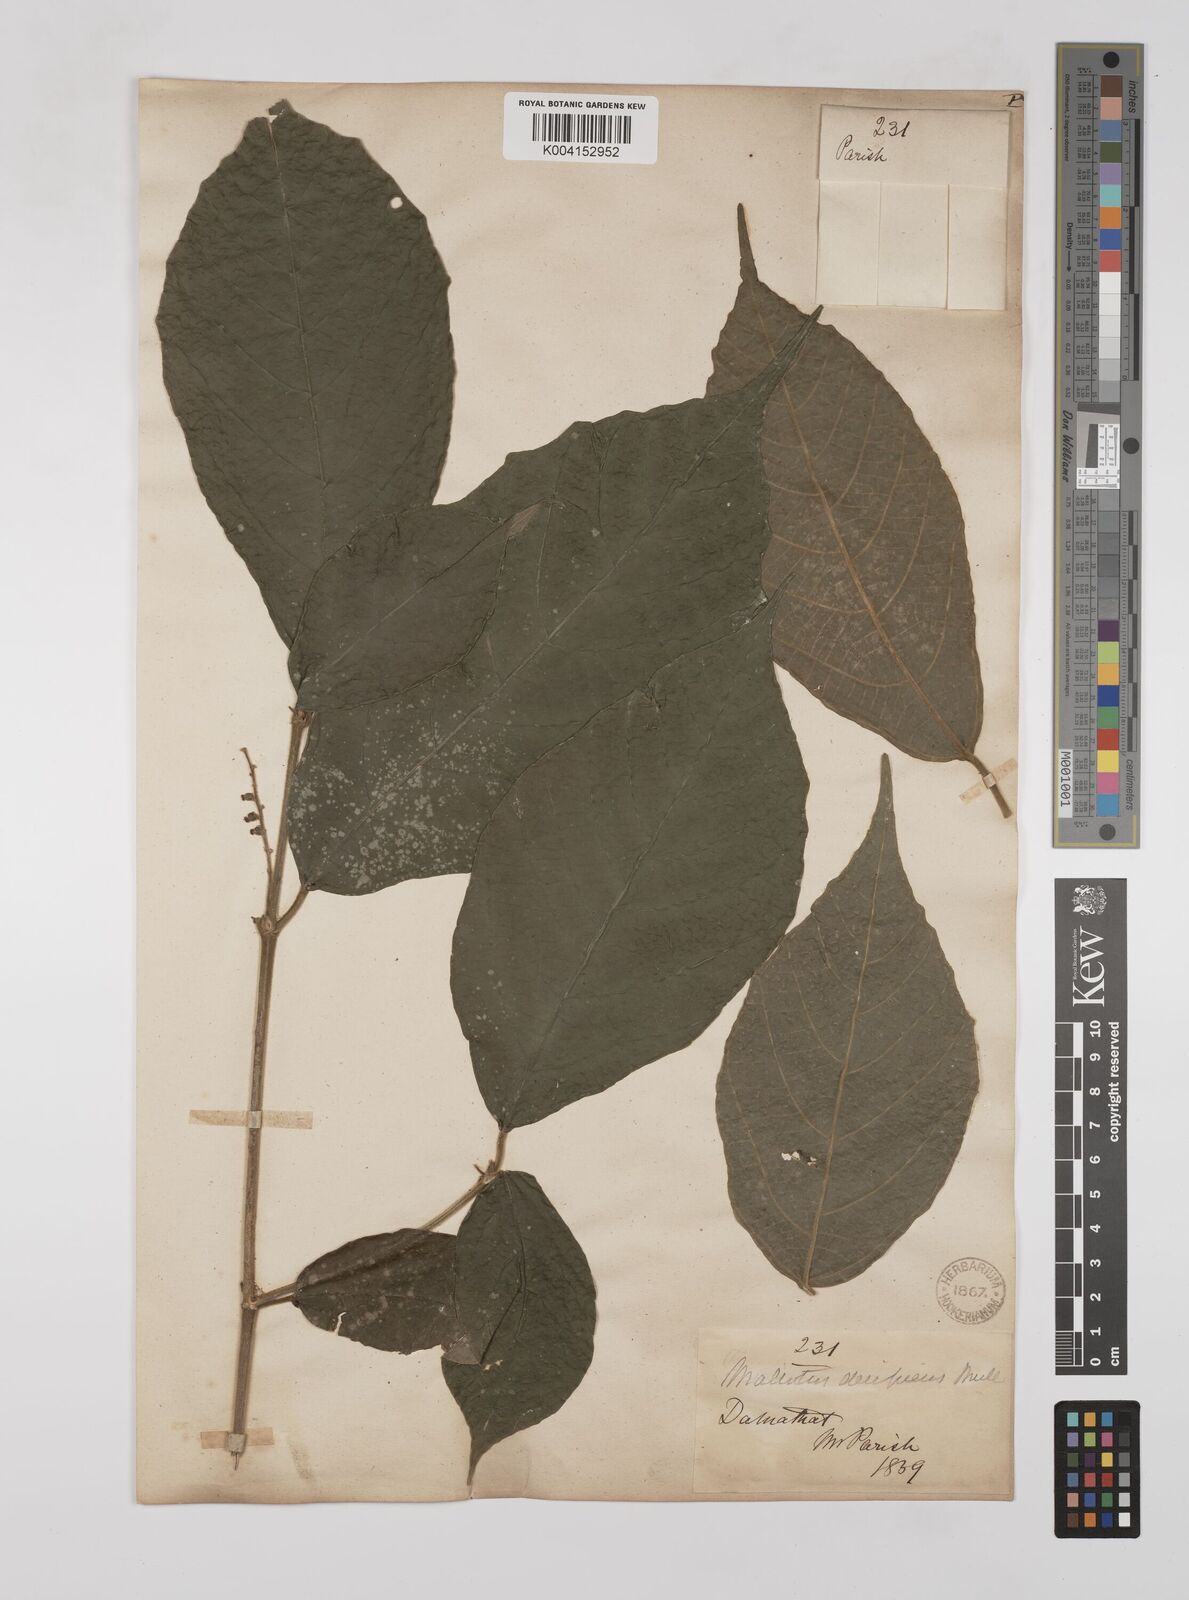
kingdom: Plantae
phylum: Tracheophyta
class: Magnoliopsida
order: Malpighiales
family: Euphorbiaceae
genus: Mallotus
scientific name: Mallotus decipiens
